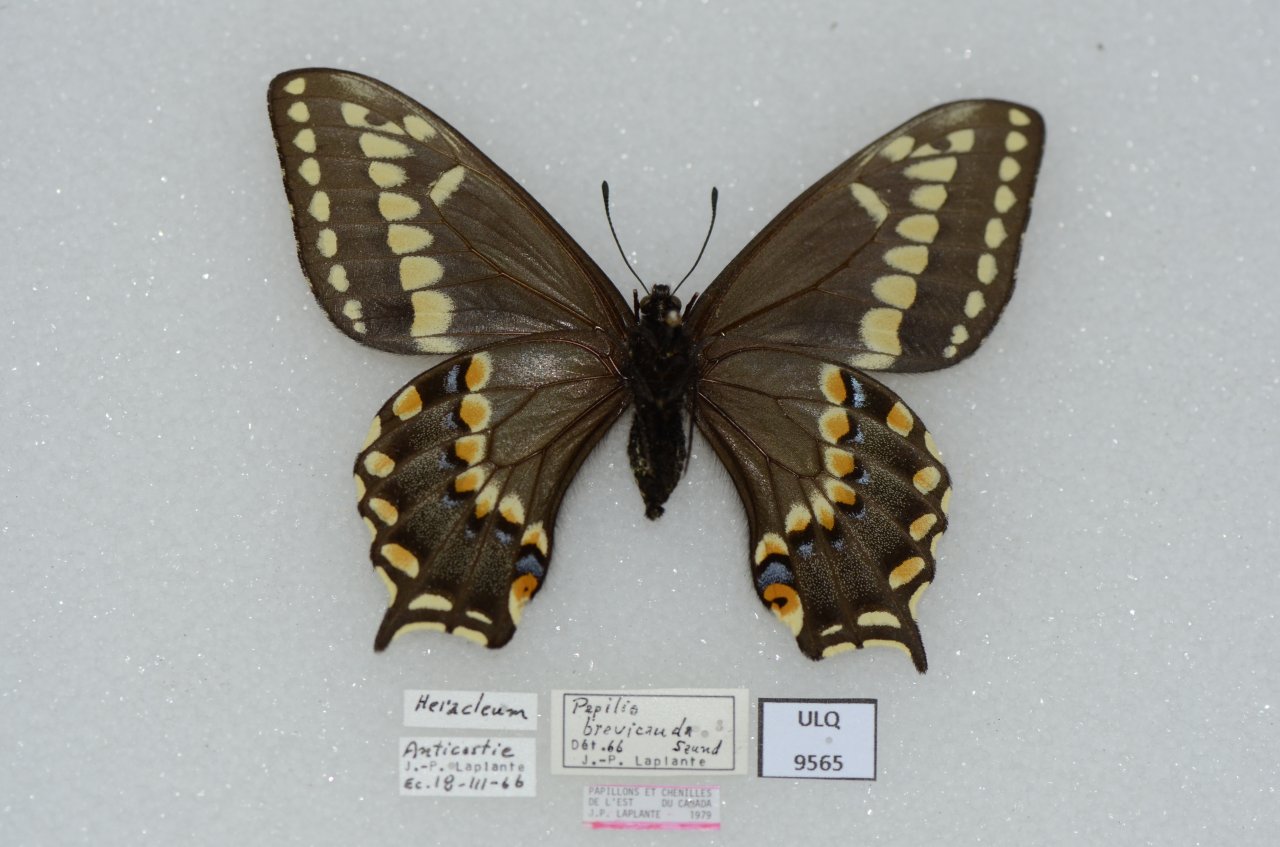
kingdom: Animalia
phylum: Arthropoda
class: Insecta
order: Lepidoptera
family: Papilionidae
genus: Papilio
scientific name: Papilio brevicauda
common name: Short-tailed Swallowtail
